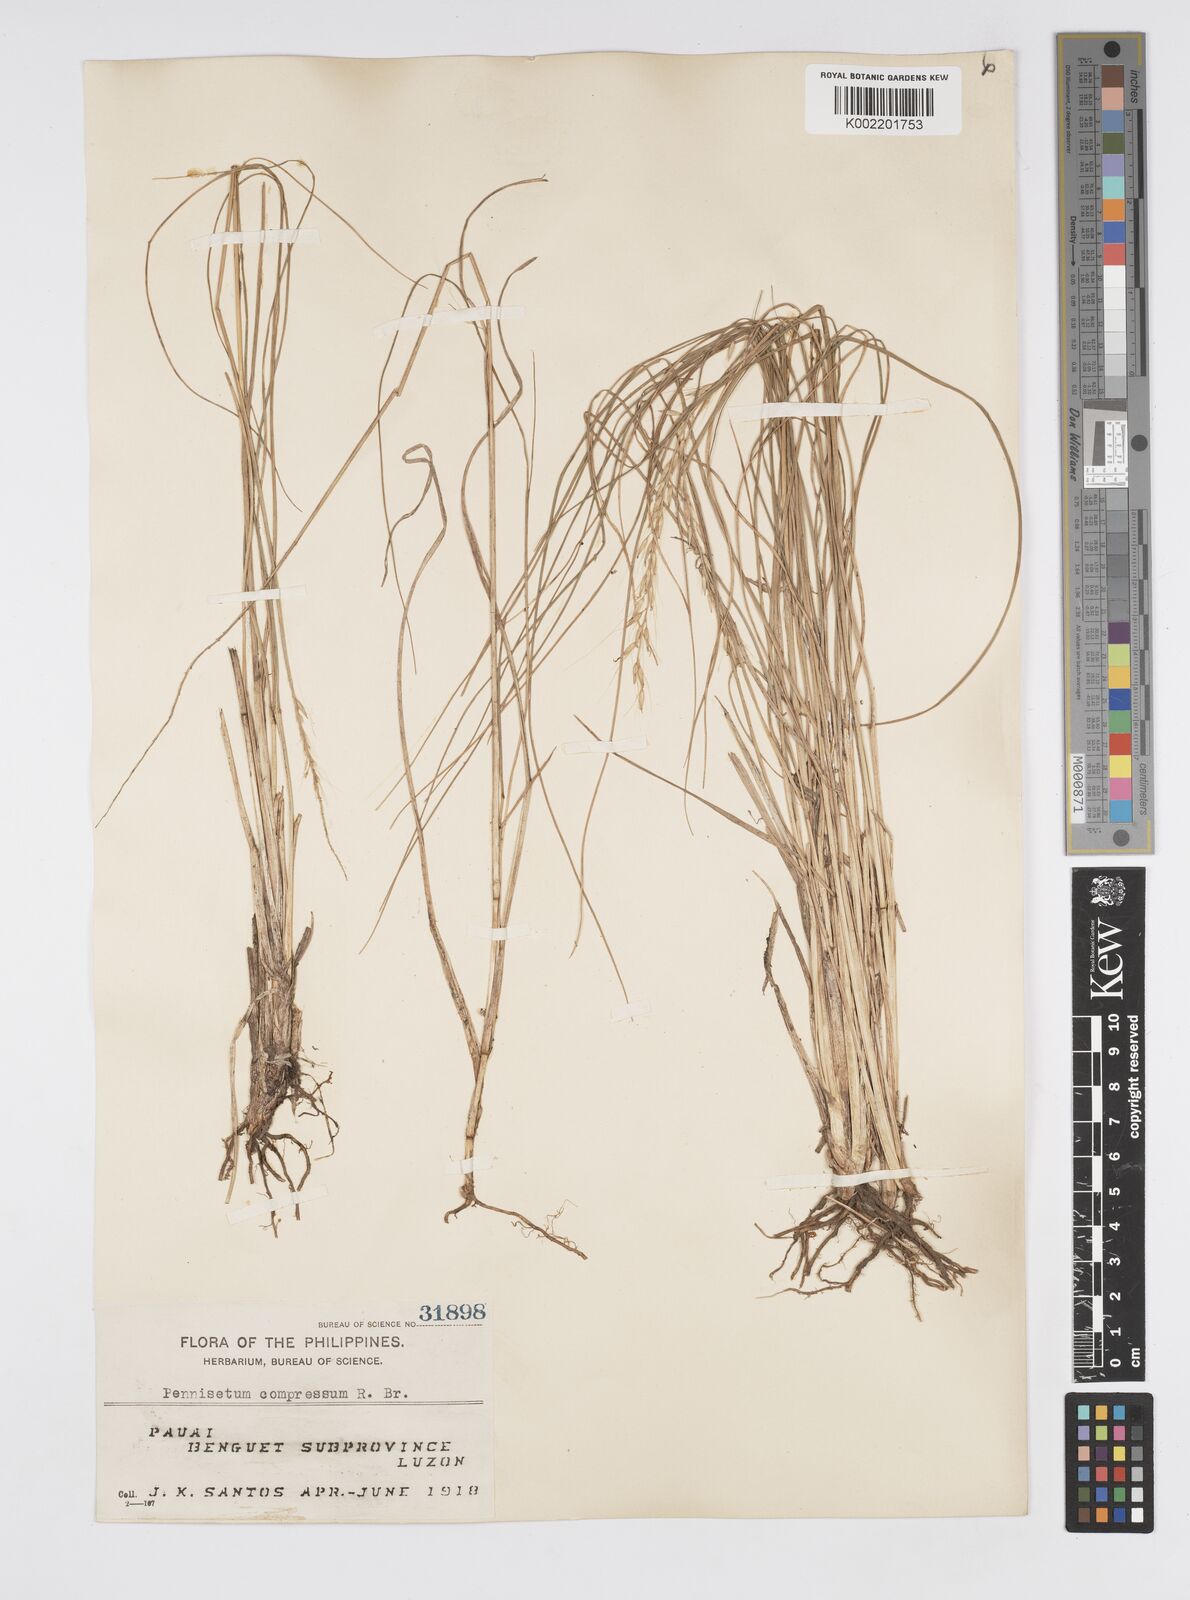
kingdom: Plantae
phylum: Tracheophyta
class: Liliopsida
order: Poales
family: Poaceae
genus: Cenchrus
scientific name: Cenchrus setosus
